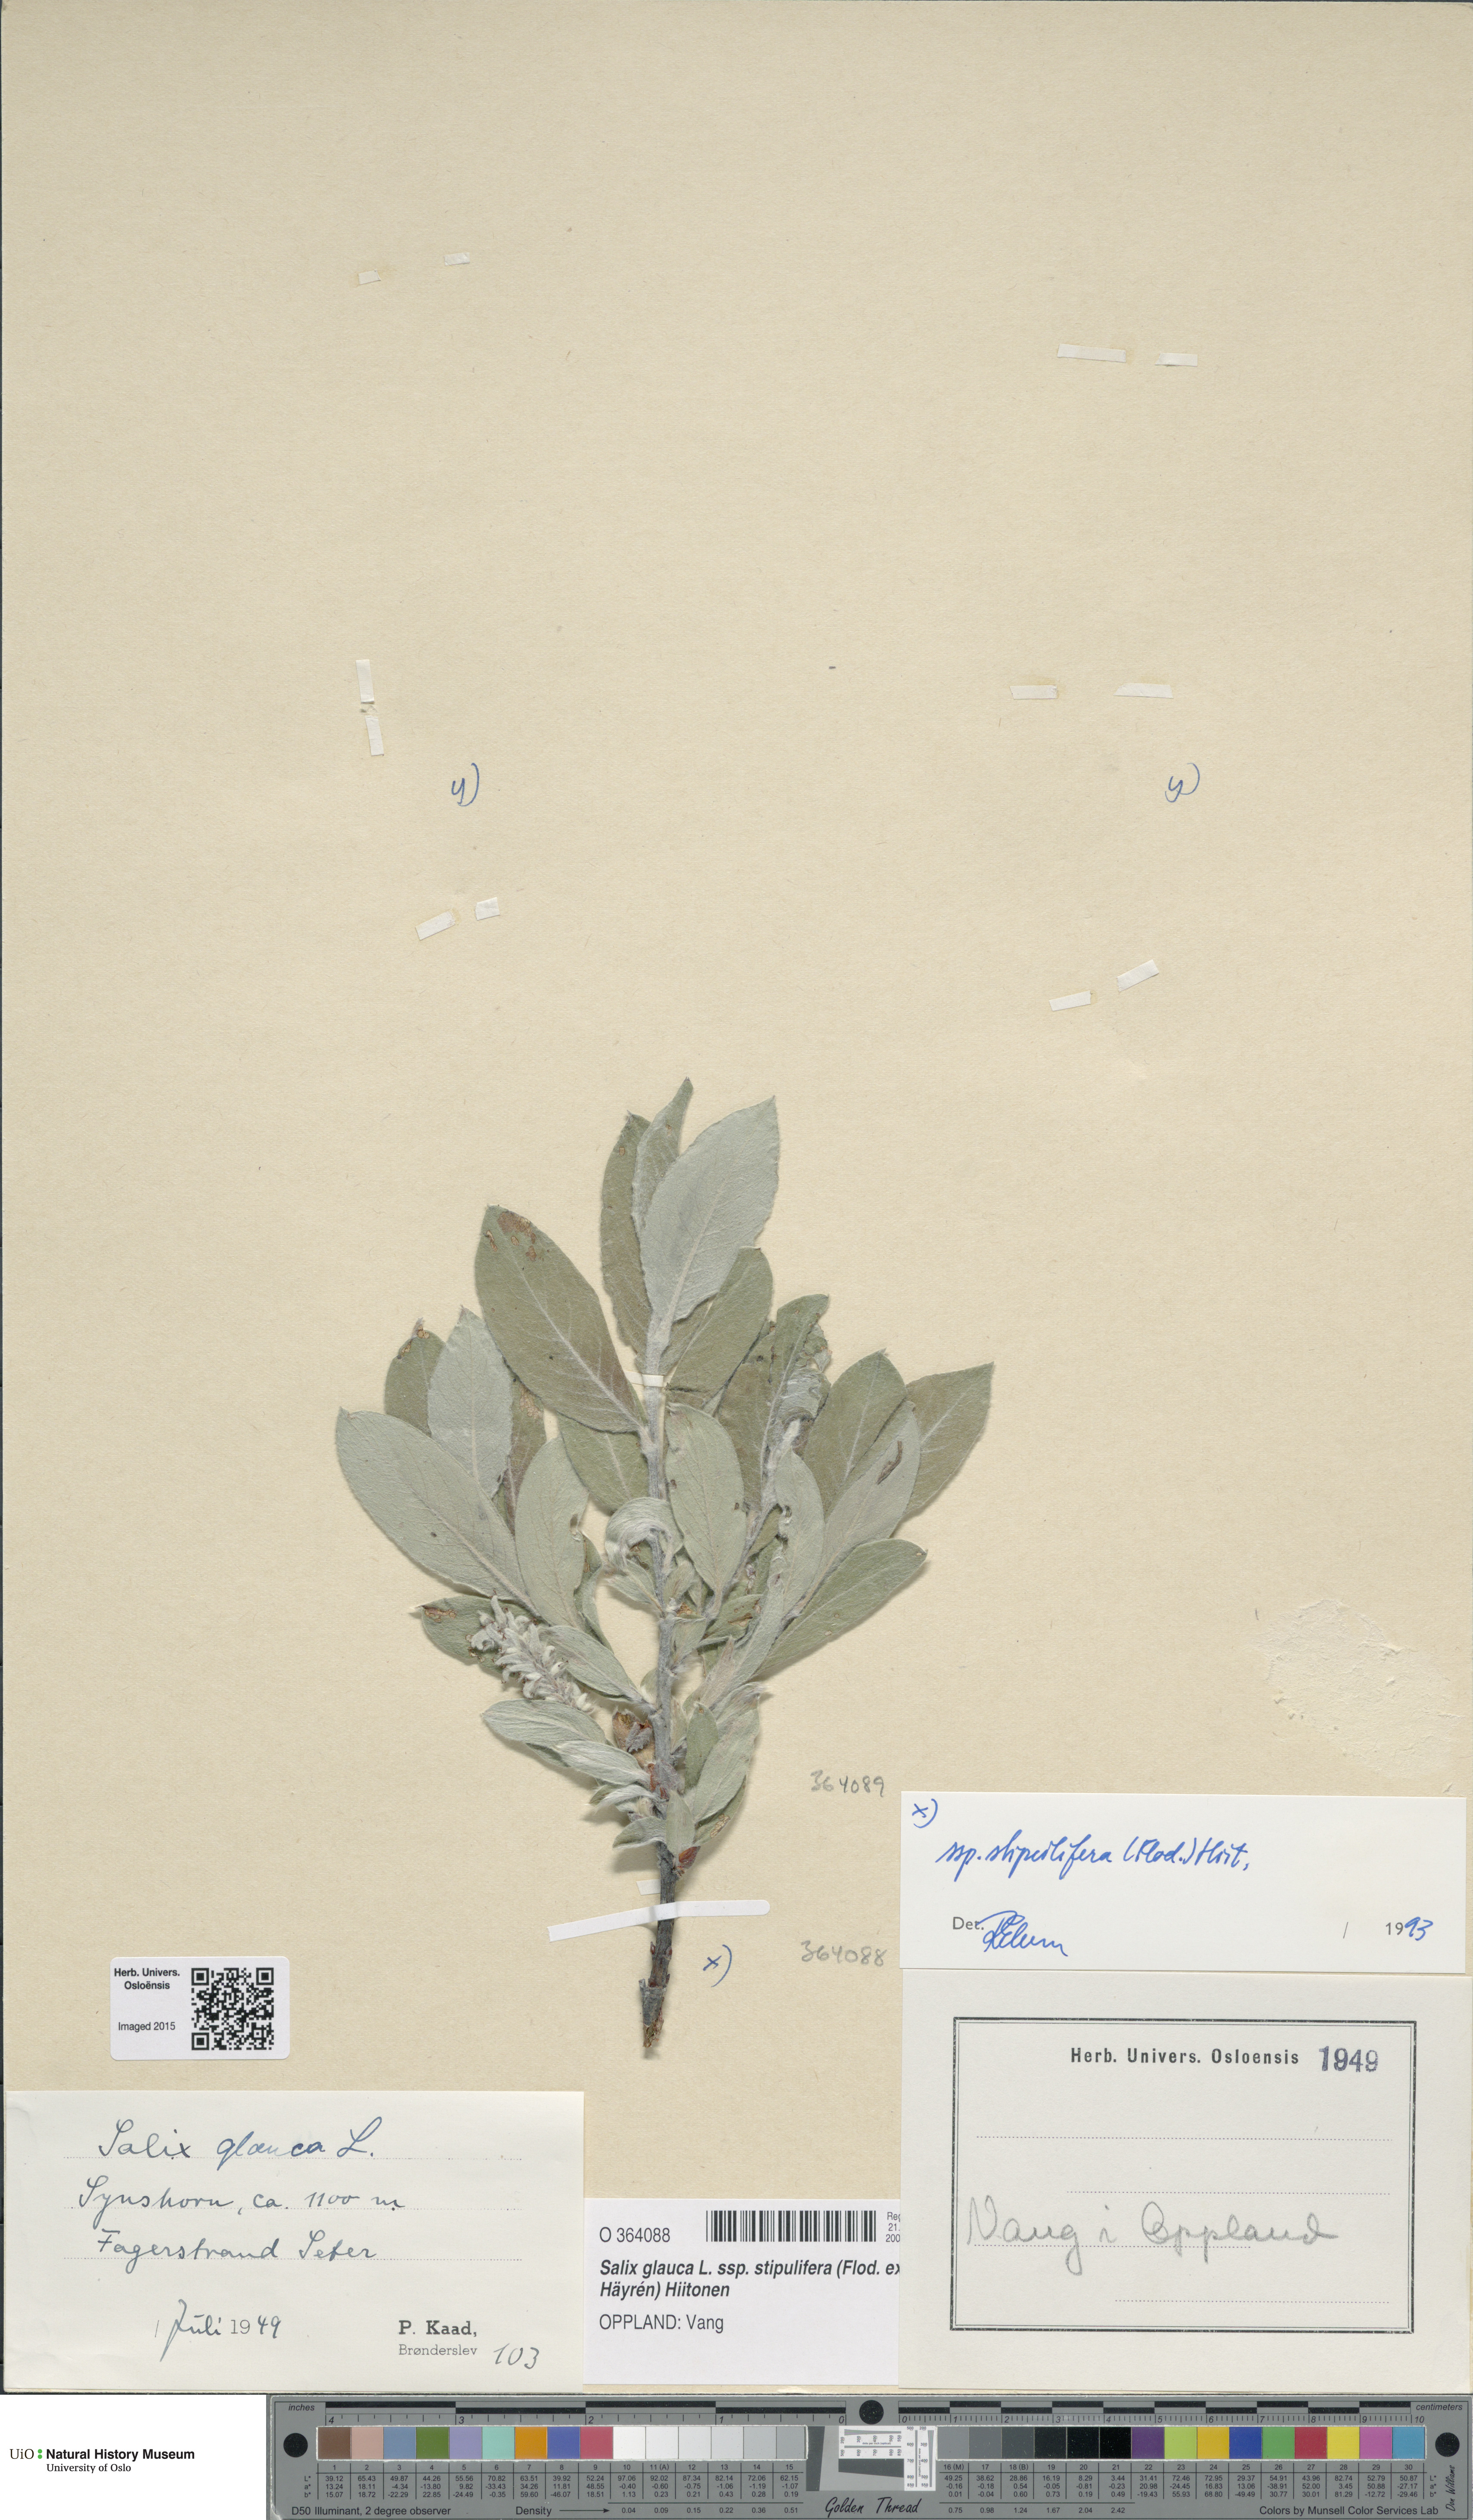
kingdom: Plantae
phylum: Tracheophyta
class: Magnoliopsida
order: Malpighiales
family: Salicaceae
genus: Salix
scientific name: Salix glauca
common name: Glaucous willow
